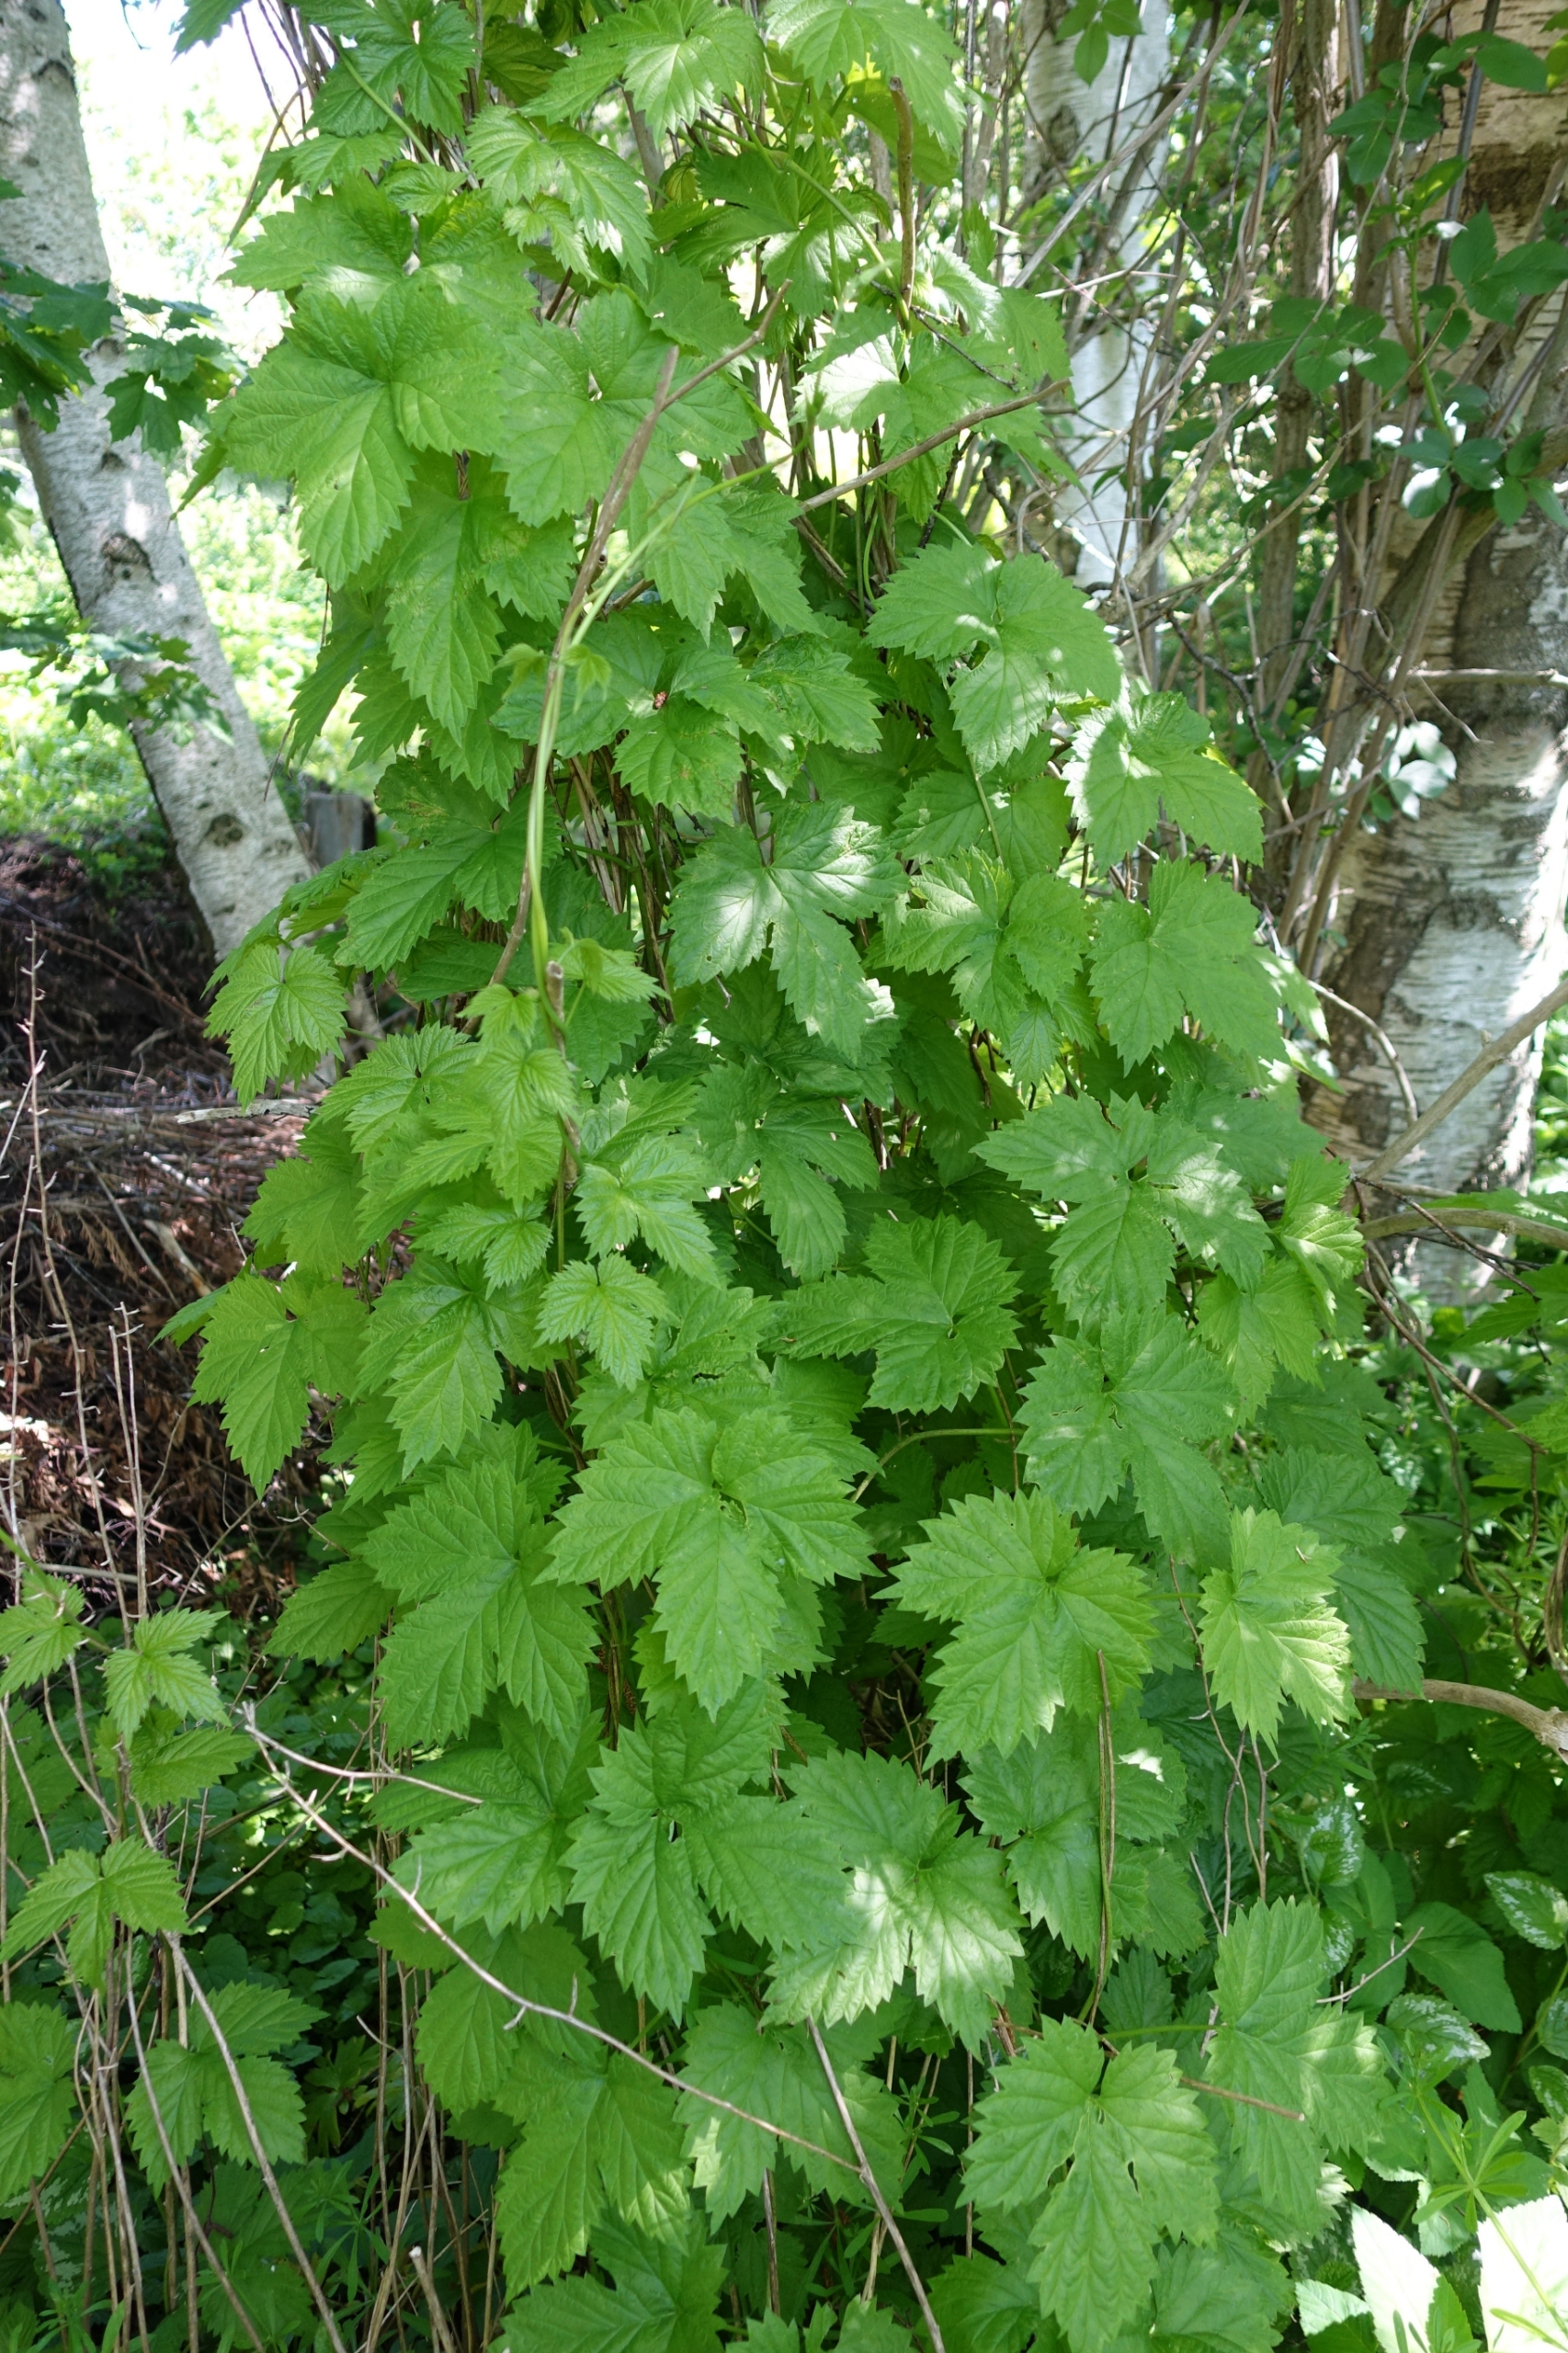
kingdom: Plantae
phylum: Tracheophyta
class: Magnoliopsida
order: Rosales
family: Cannabaceae
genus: Humulus
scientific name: Humulus lupulus
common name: Humle
